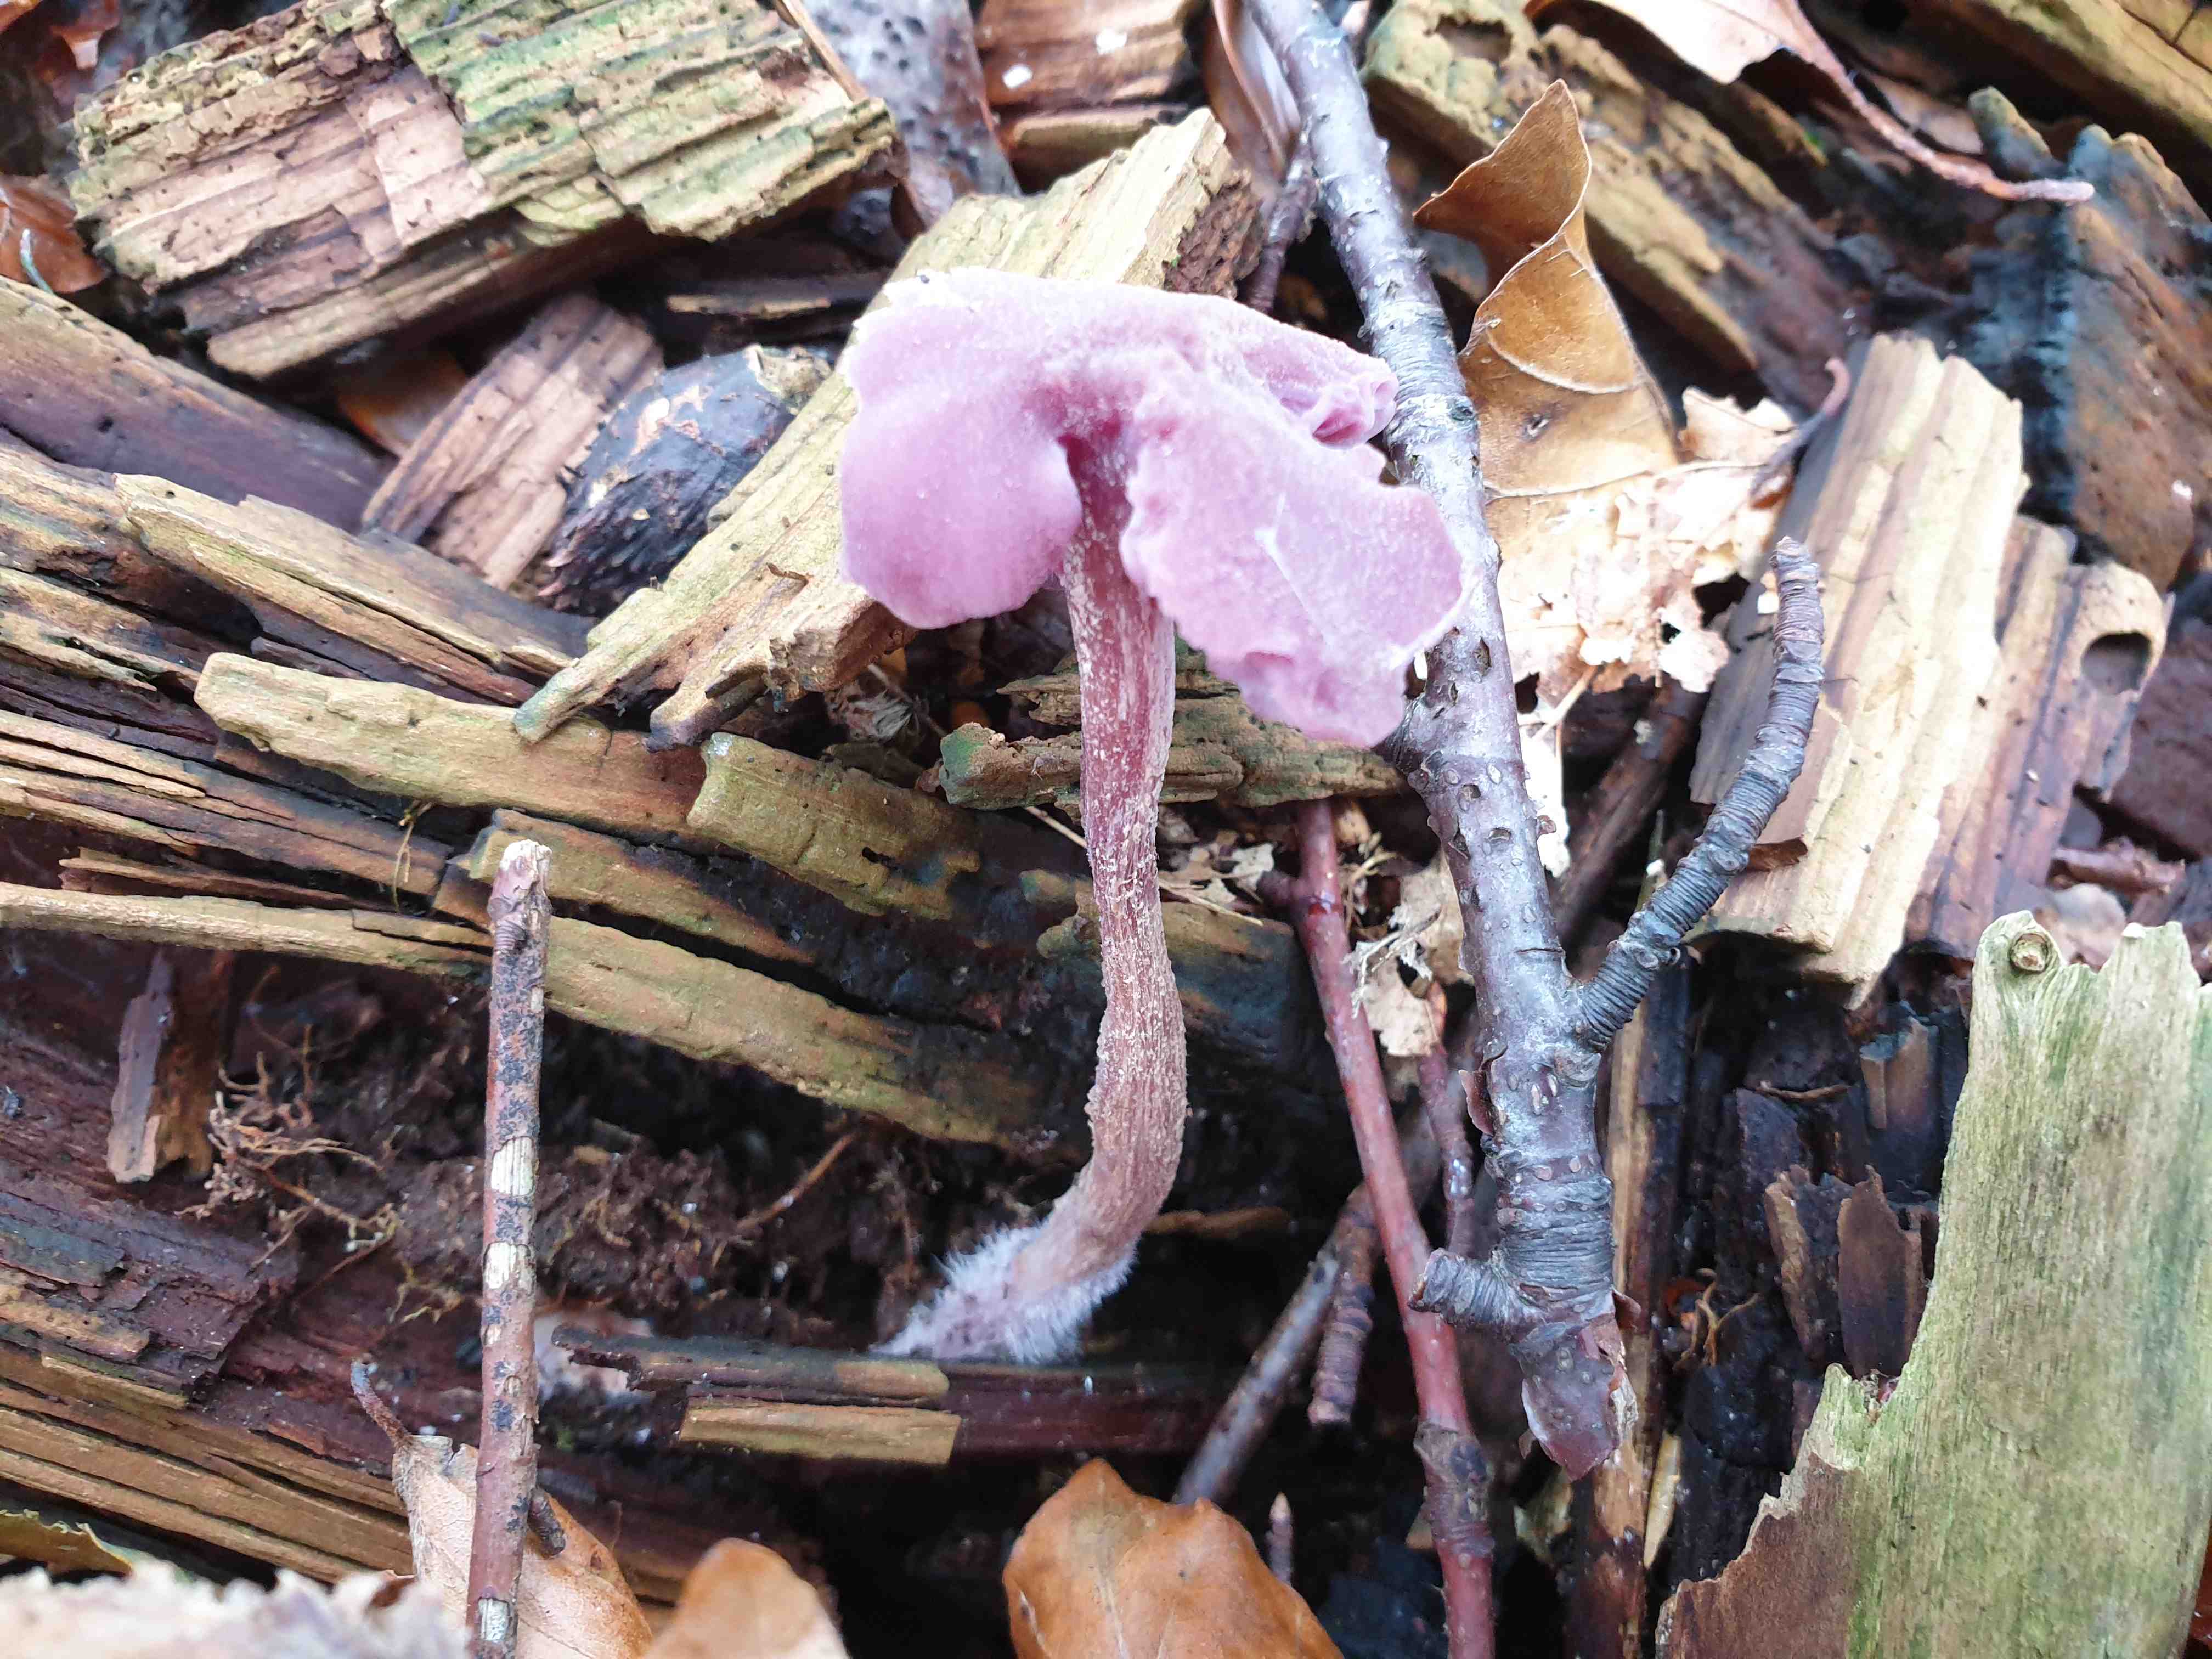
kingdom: Fungi
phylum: Basidiomycota
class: Agaricomycetes
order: Agaricales
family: Hydnangiaceae
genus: Laccaria
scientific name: Laccaria amethystina
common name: violet ametysthat
